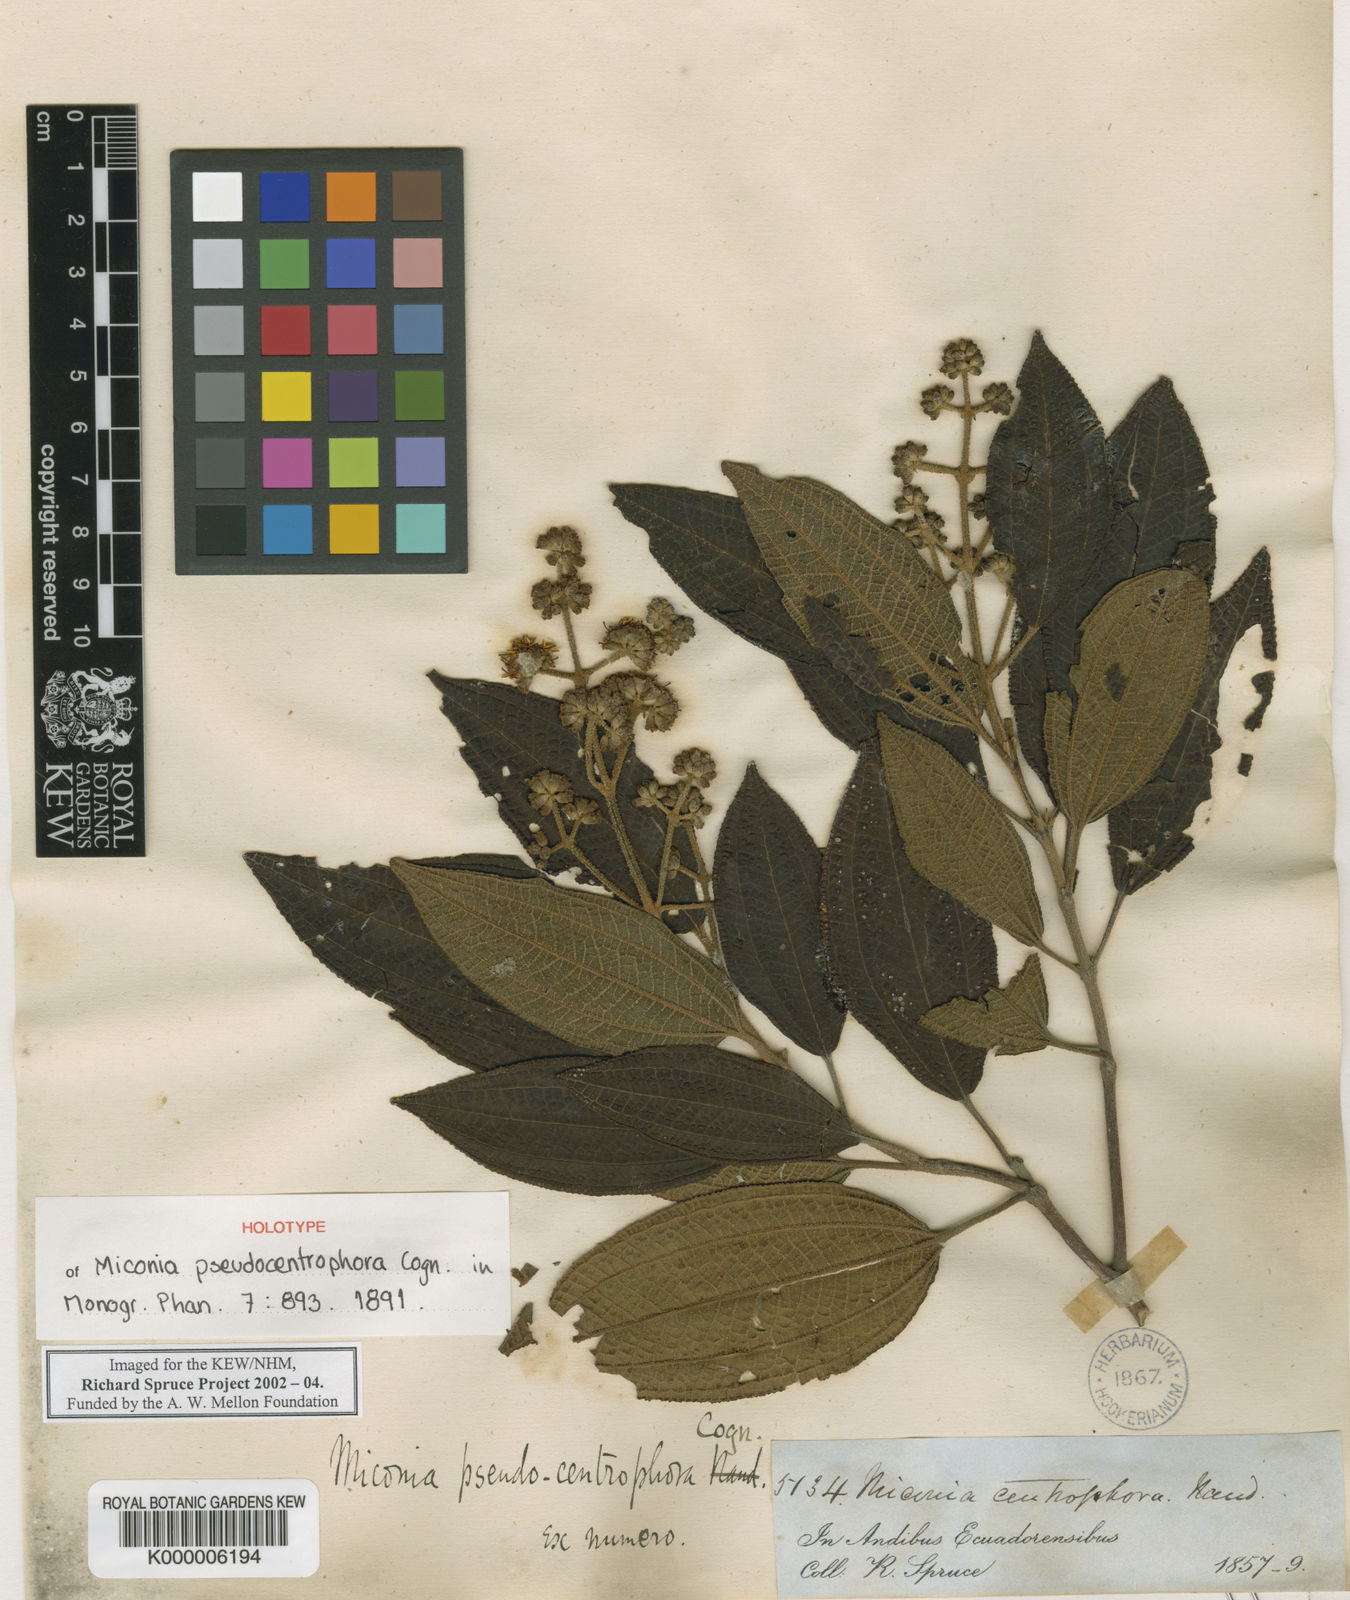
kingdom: Plantae
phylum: Tracheophyta
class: Magnoliopsida
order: Myrtales
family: Melastomataceae
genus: Miconia
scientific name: Miconia pseudocentrophora
